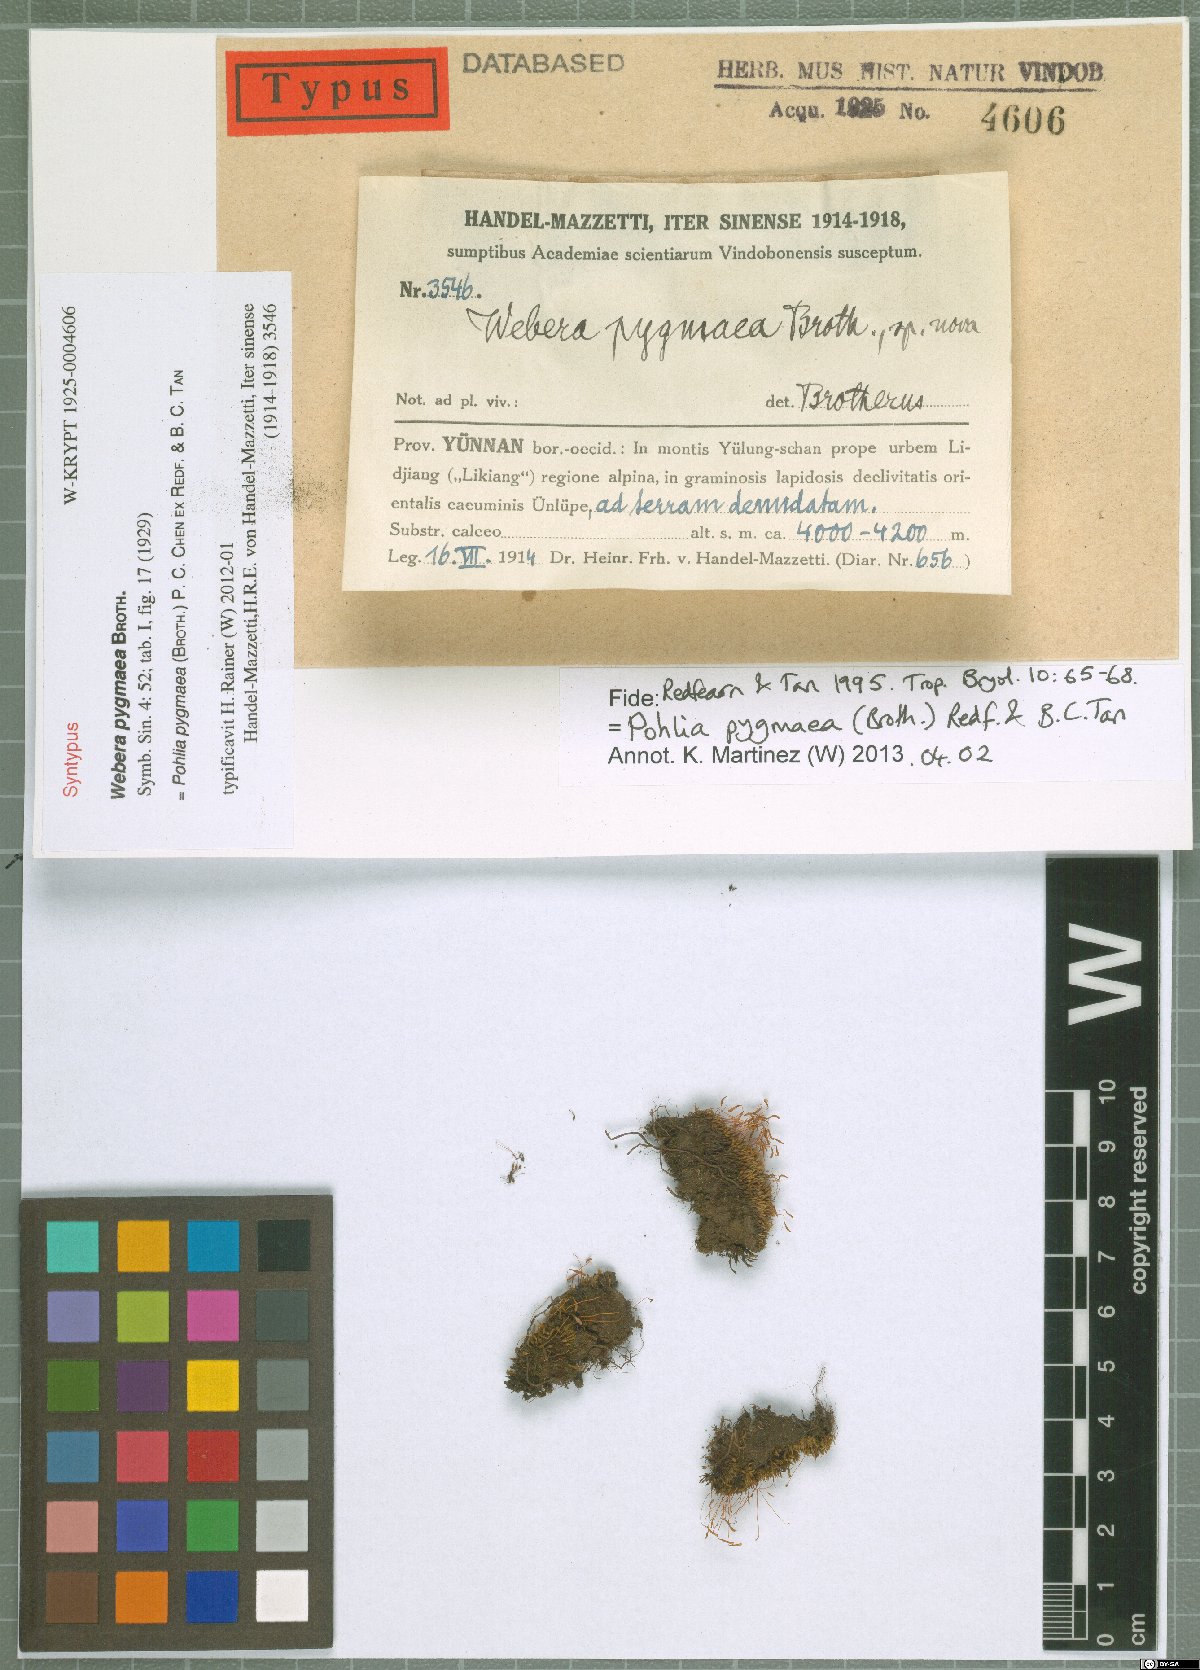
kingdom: Plantae
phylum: Bryophyta
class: Bryopsida
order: Bryales
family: Mniaceae
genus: Pohlia
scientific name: Pohlia elongata
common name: Long-fruited thread-moss
